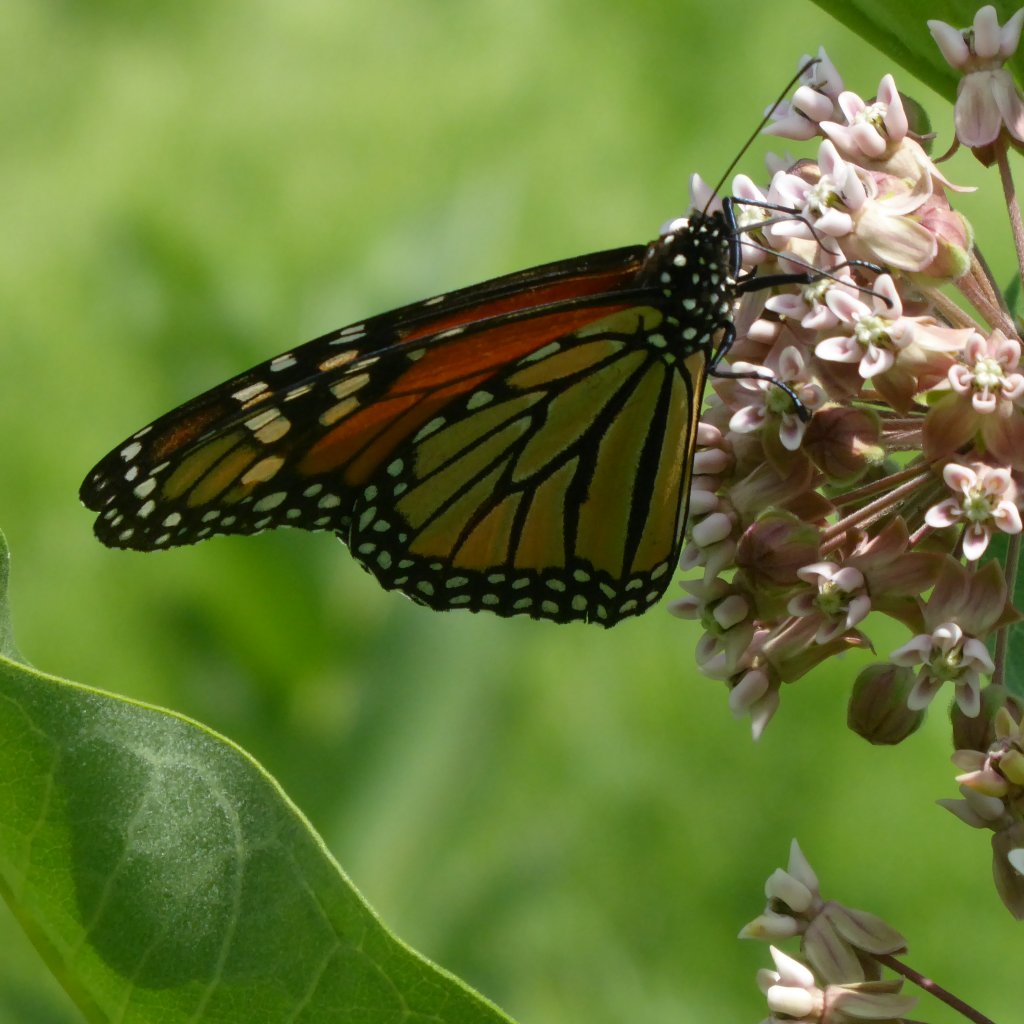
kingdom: Animalia
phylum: Arthropoda
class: Insecta
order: Lepidoptera
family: Nymphalidae
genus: Danaus
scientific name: Danaus plexippus
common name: Monarch
